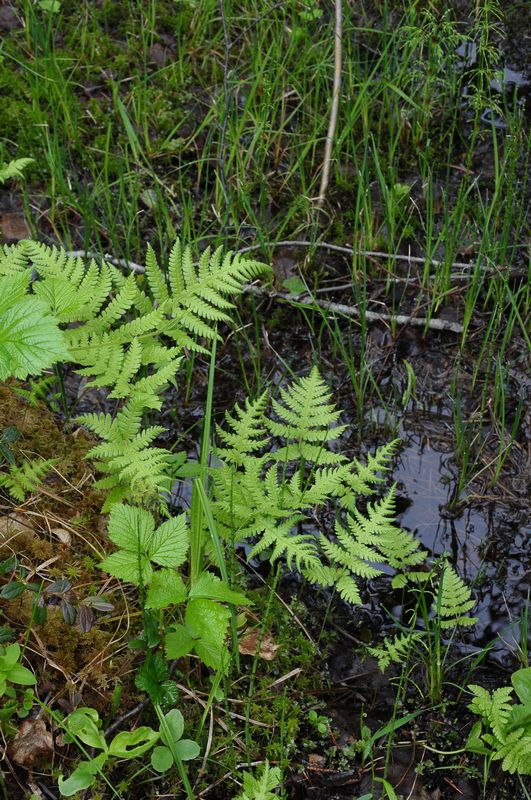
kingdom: Plantae
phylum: Tracheophyta
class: Polypodiopsida
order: Polypodiales
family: Thelypteridaceae
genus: Phegopteris
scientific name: Phegopteris connectilis
